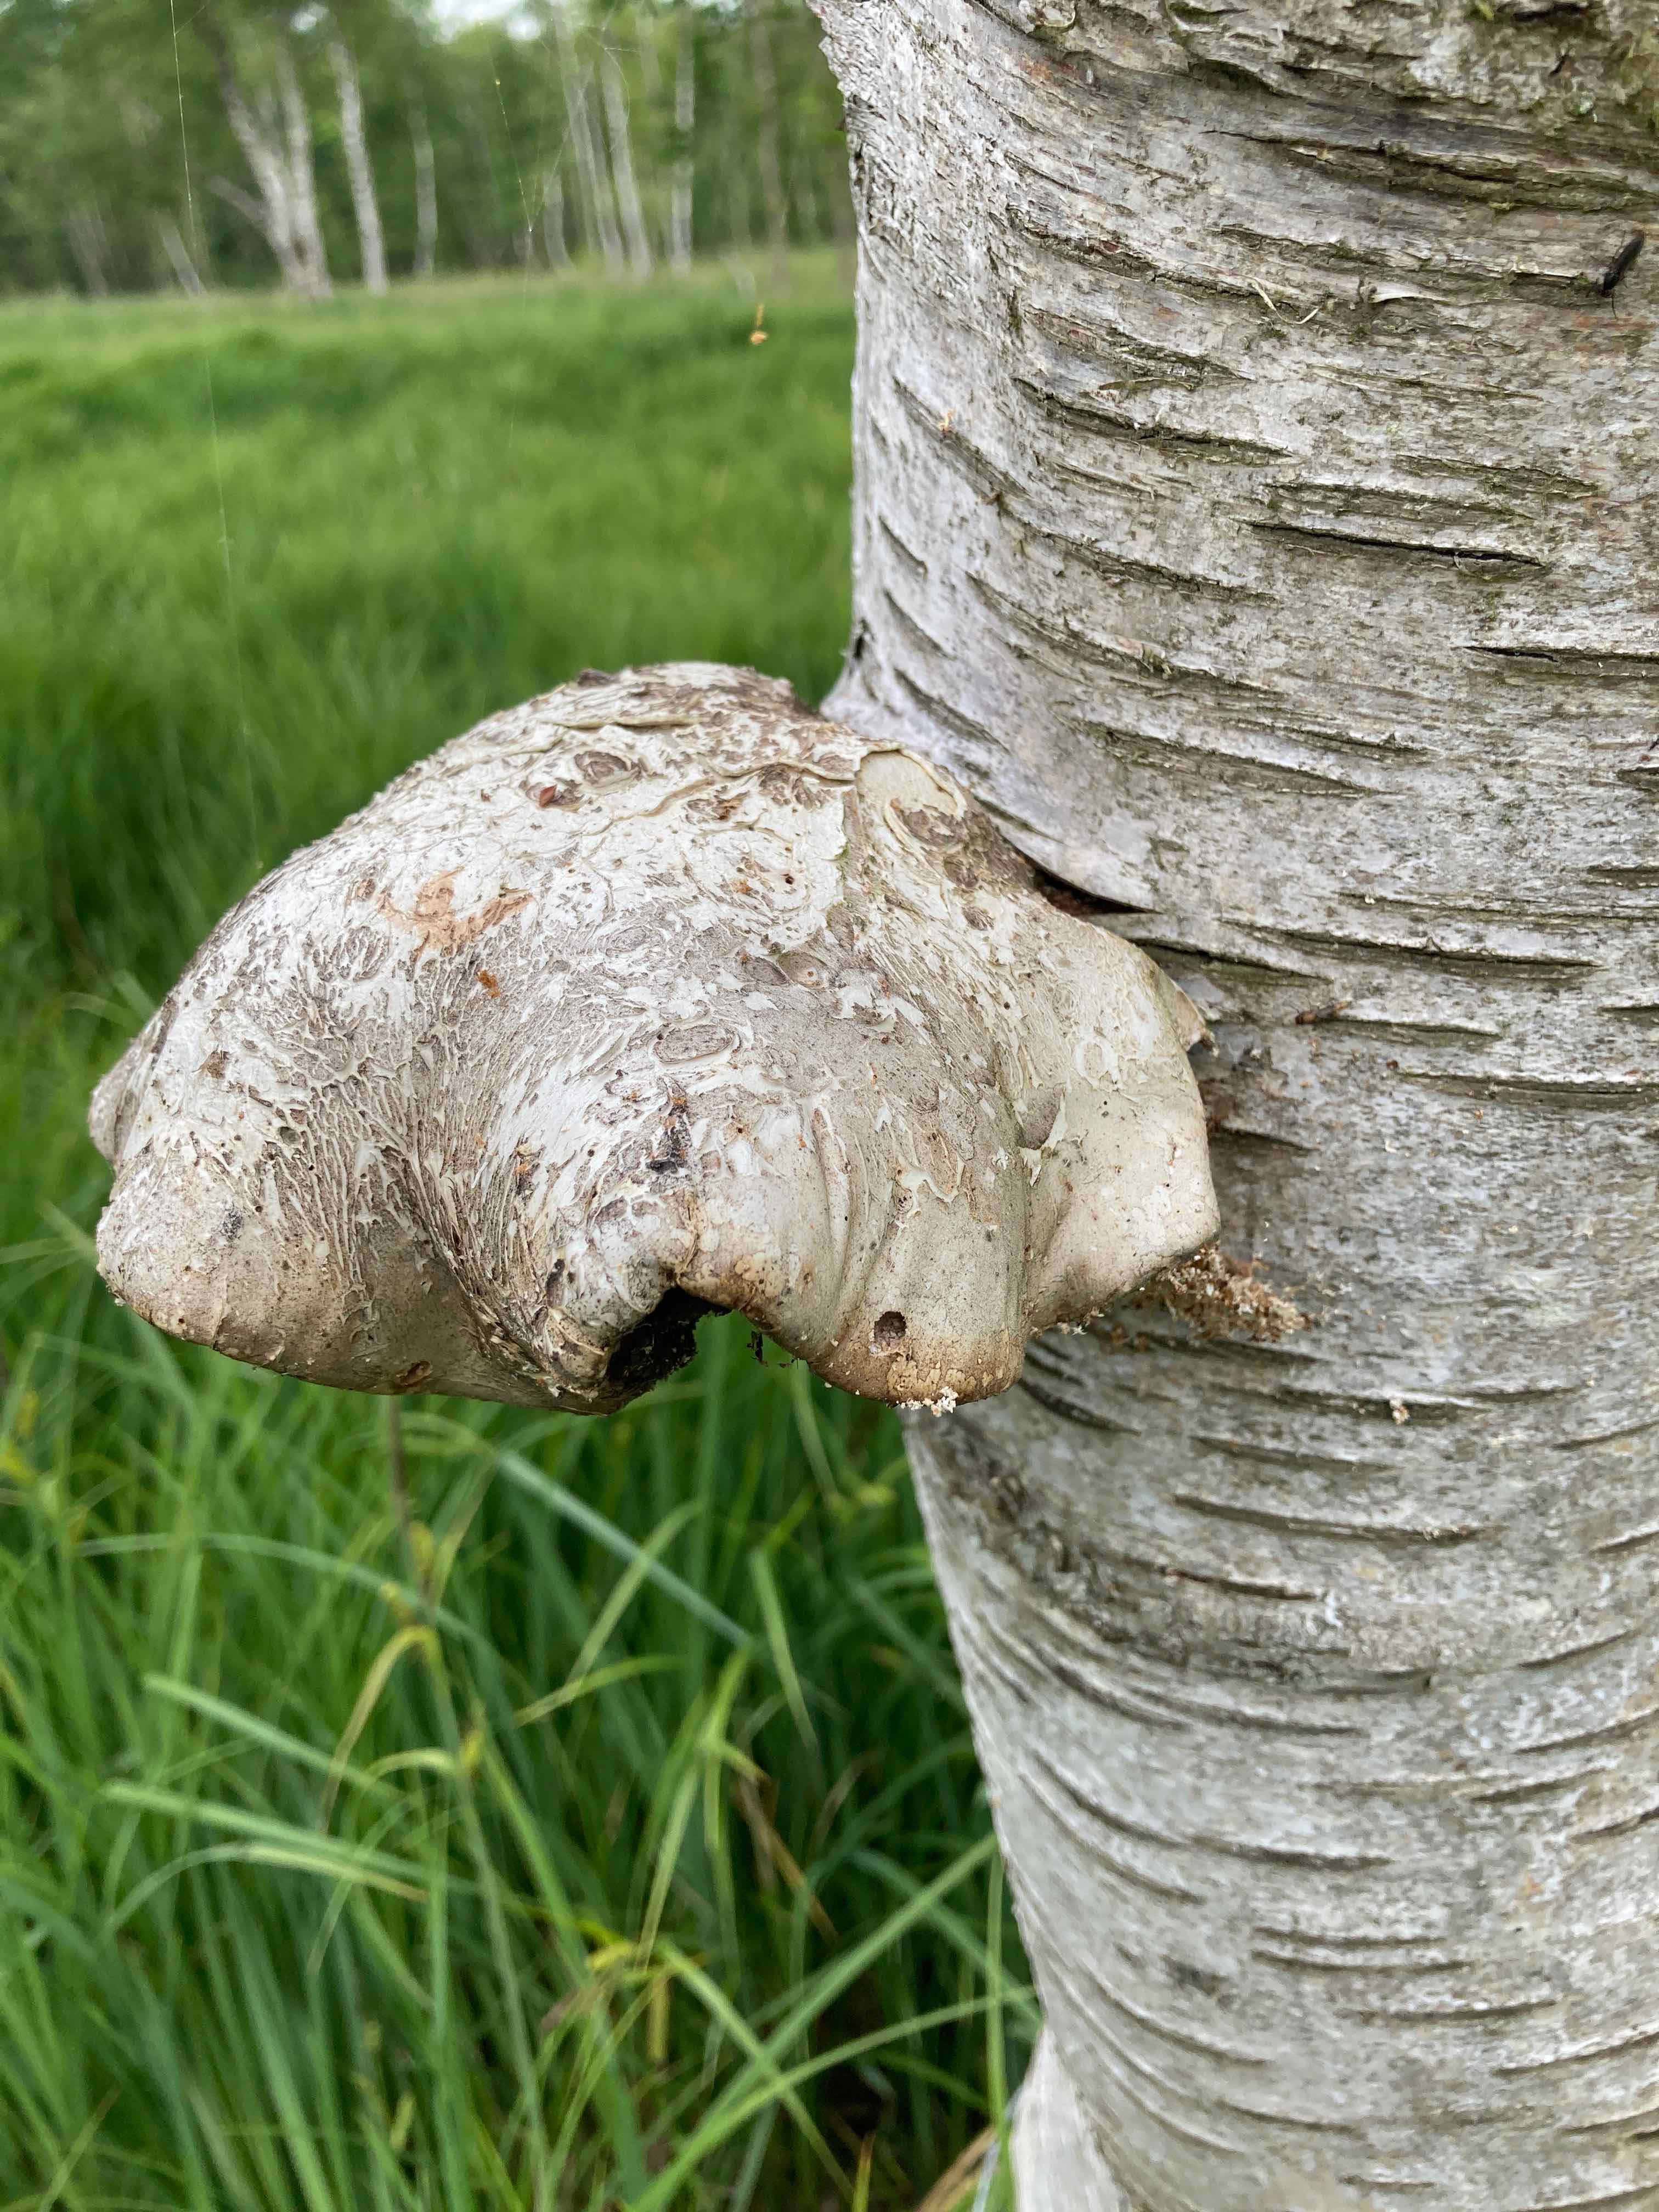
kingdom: Fungi
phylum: Basidiomycota
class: Agaricomycetes
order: Polyporales
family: Fomitopsidaceae
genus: Fomitopsis
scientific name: Fomitopsis betulina
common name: birkeporesvamp
